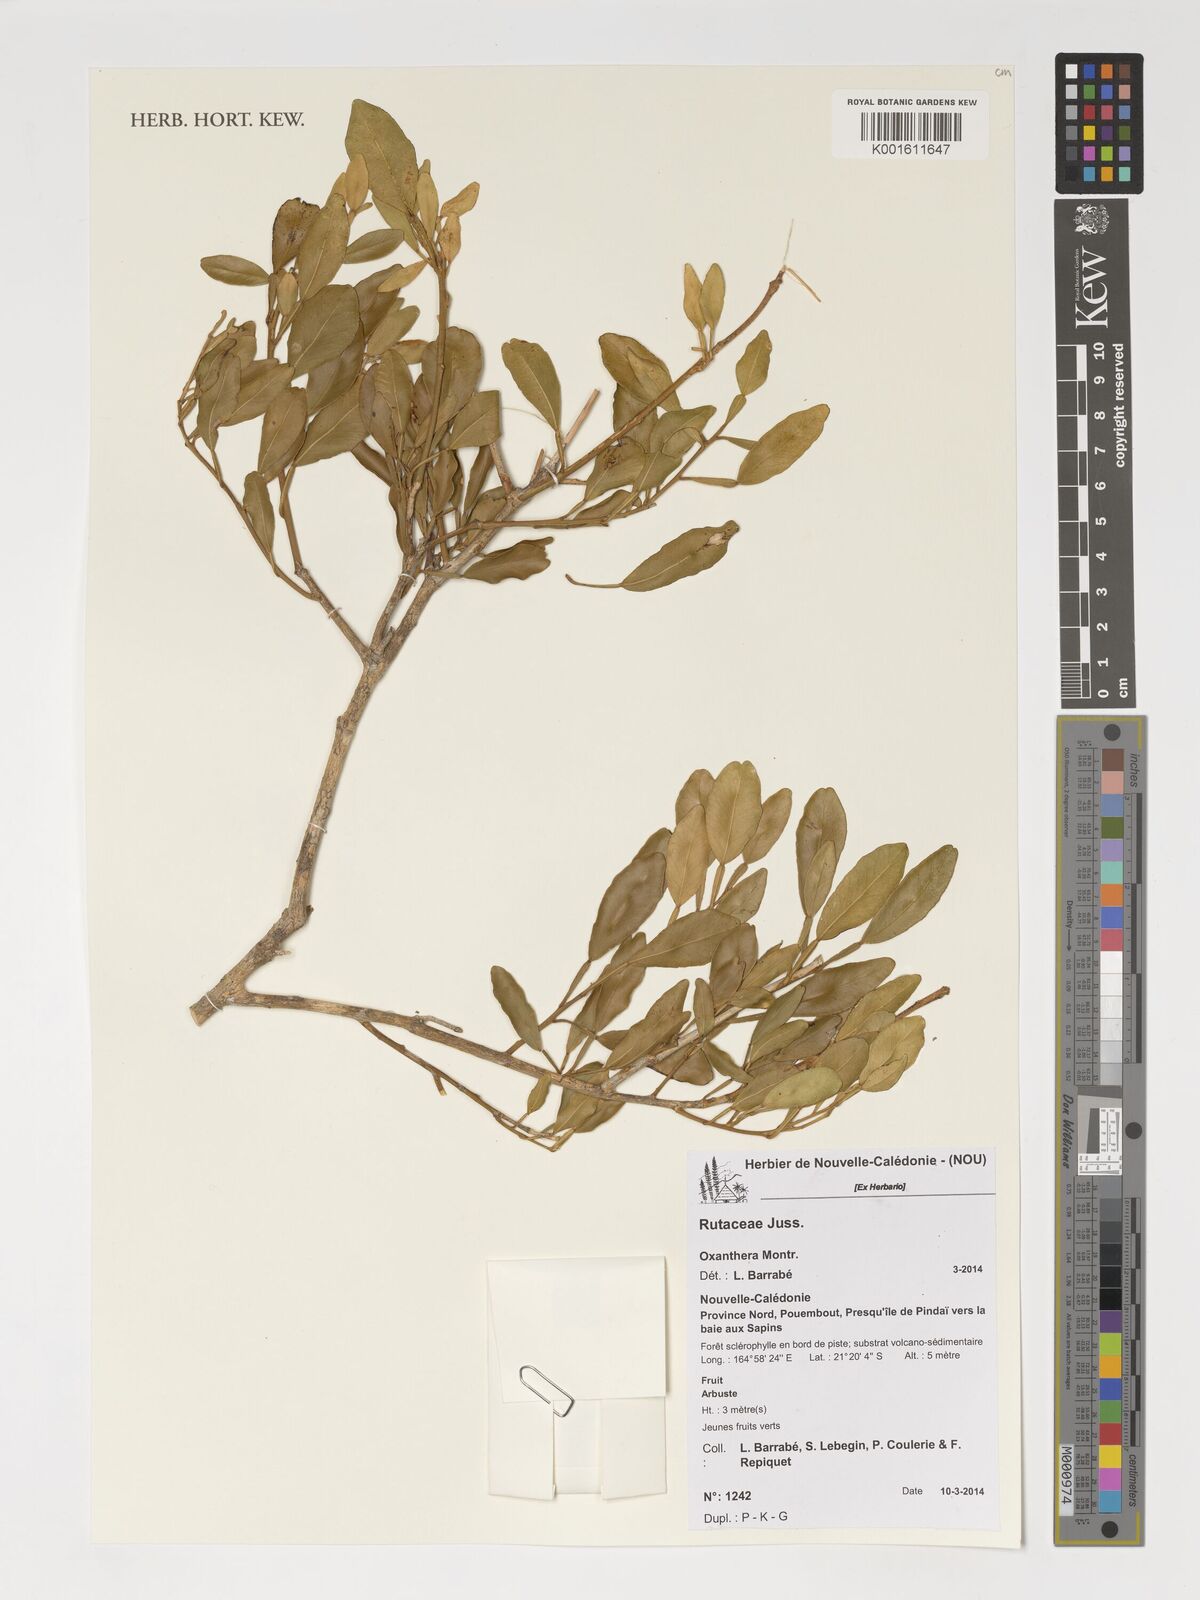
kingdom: Plantae
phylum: Tracheophyta
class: Magnoliopsida
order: Sapindales
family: Rutaceae
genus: Citrus
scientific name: Citrus
